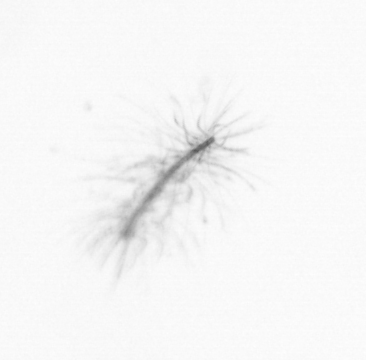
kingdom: Chromista
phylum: Ochrophyta
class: Bacillariophyceae
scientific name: Bacillariophyceae
